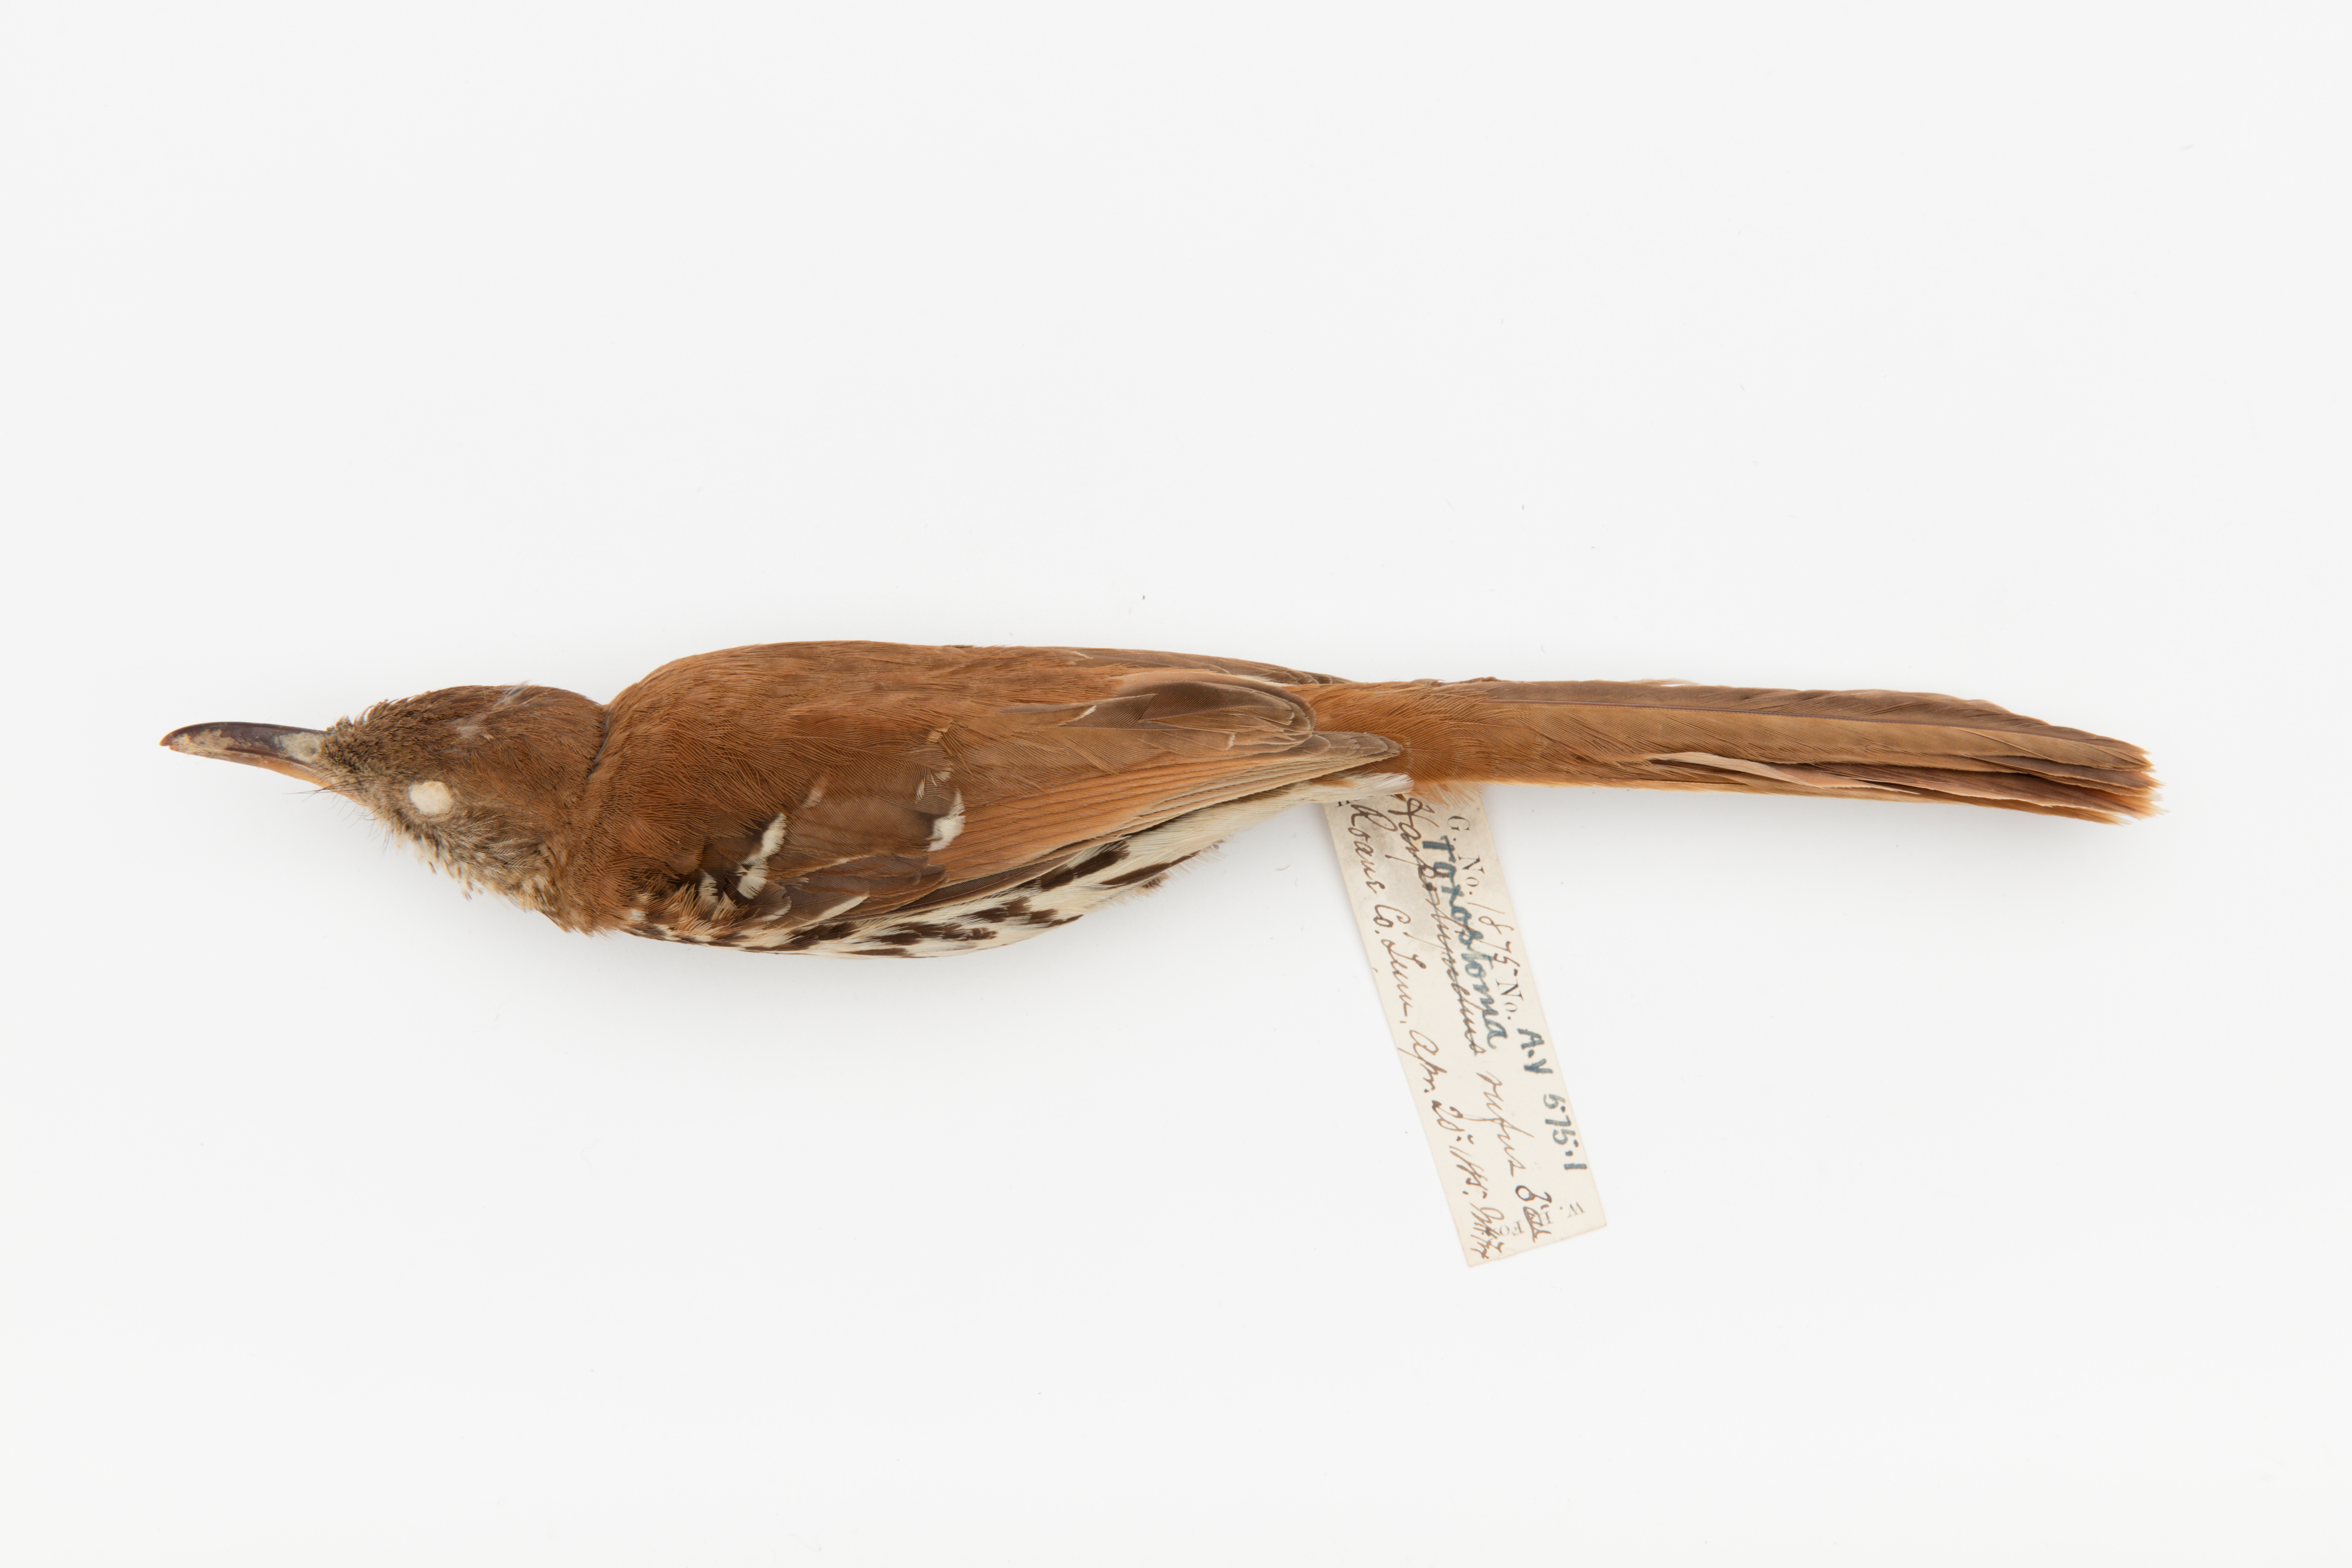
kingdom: Animalia
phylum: Chordata
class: Aves
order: Passeriformes
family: Mimidae
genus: Toxostoma
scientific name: Toxostoma rufum
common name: Brown thrasher
